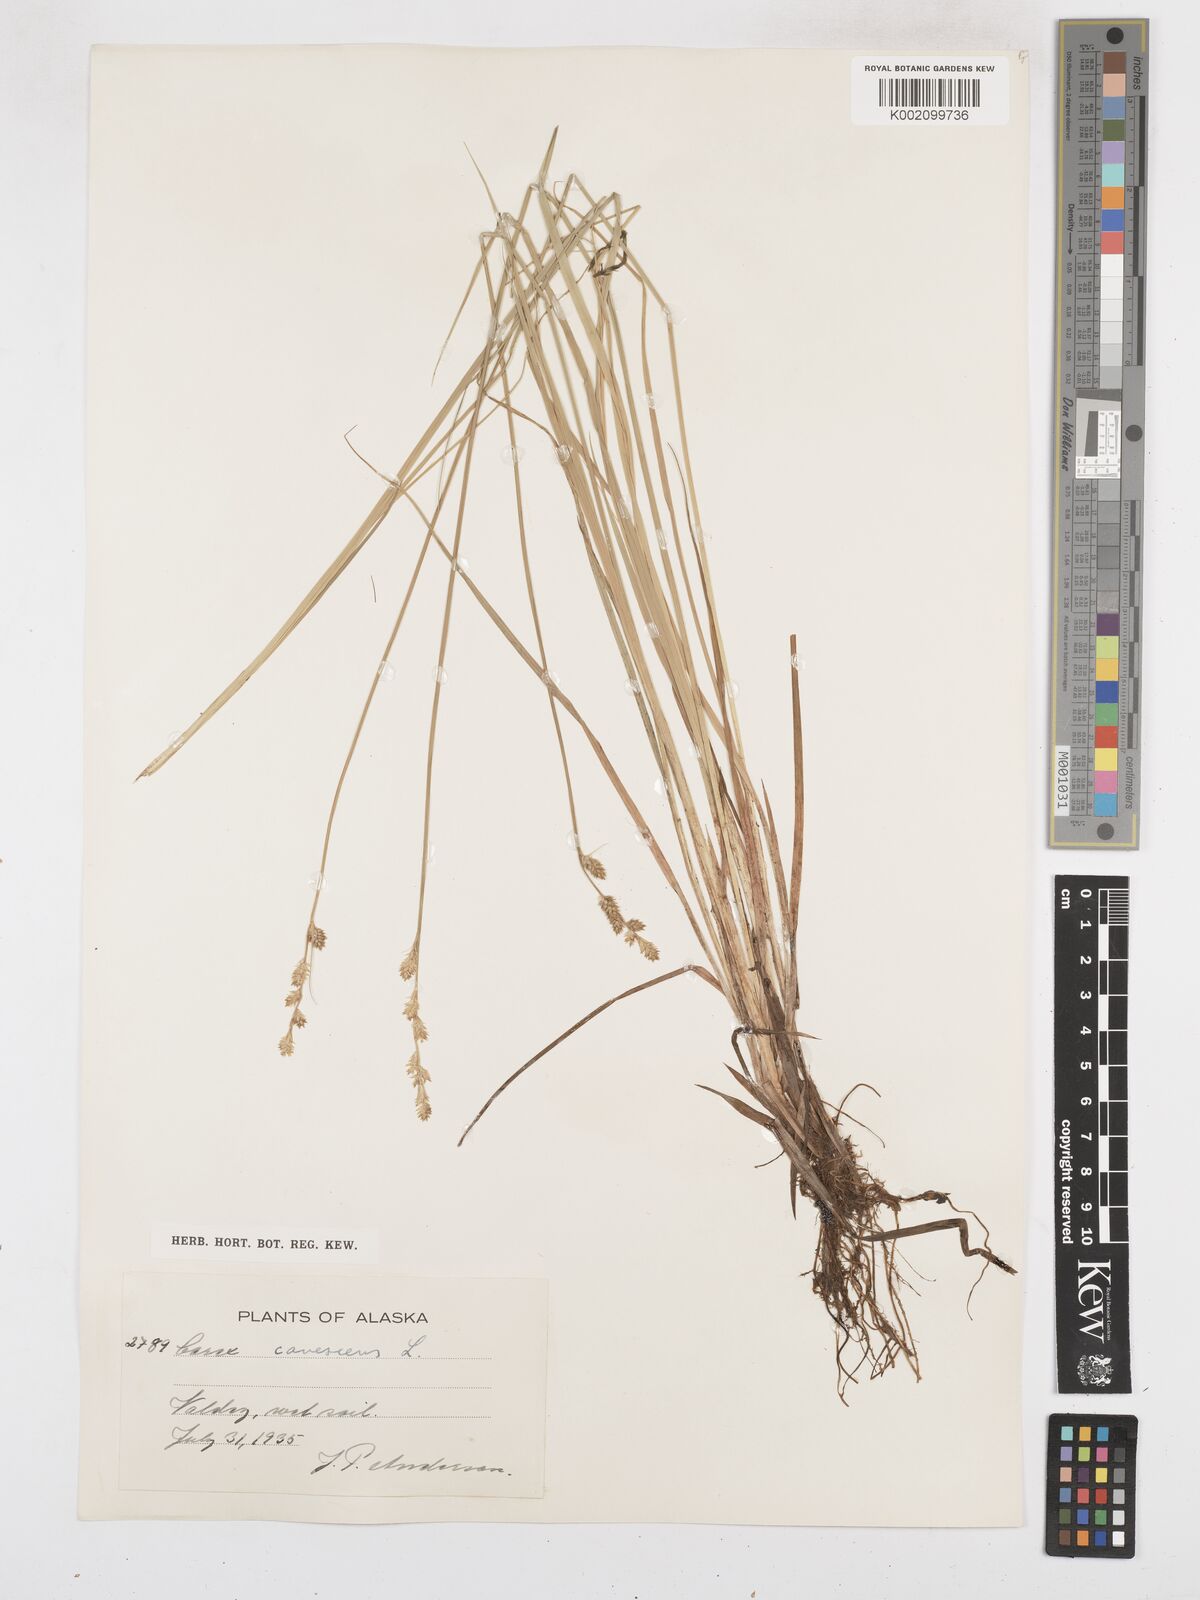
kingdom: Plantae
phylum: Tracheophyta
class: Liliopsida
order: Poales
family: Cyperaceae
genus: Carex
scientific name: Carex curta
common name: White sedge
